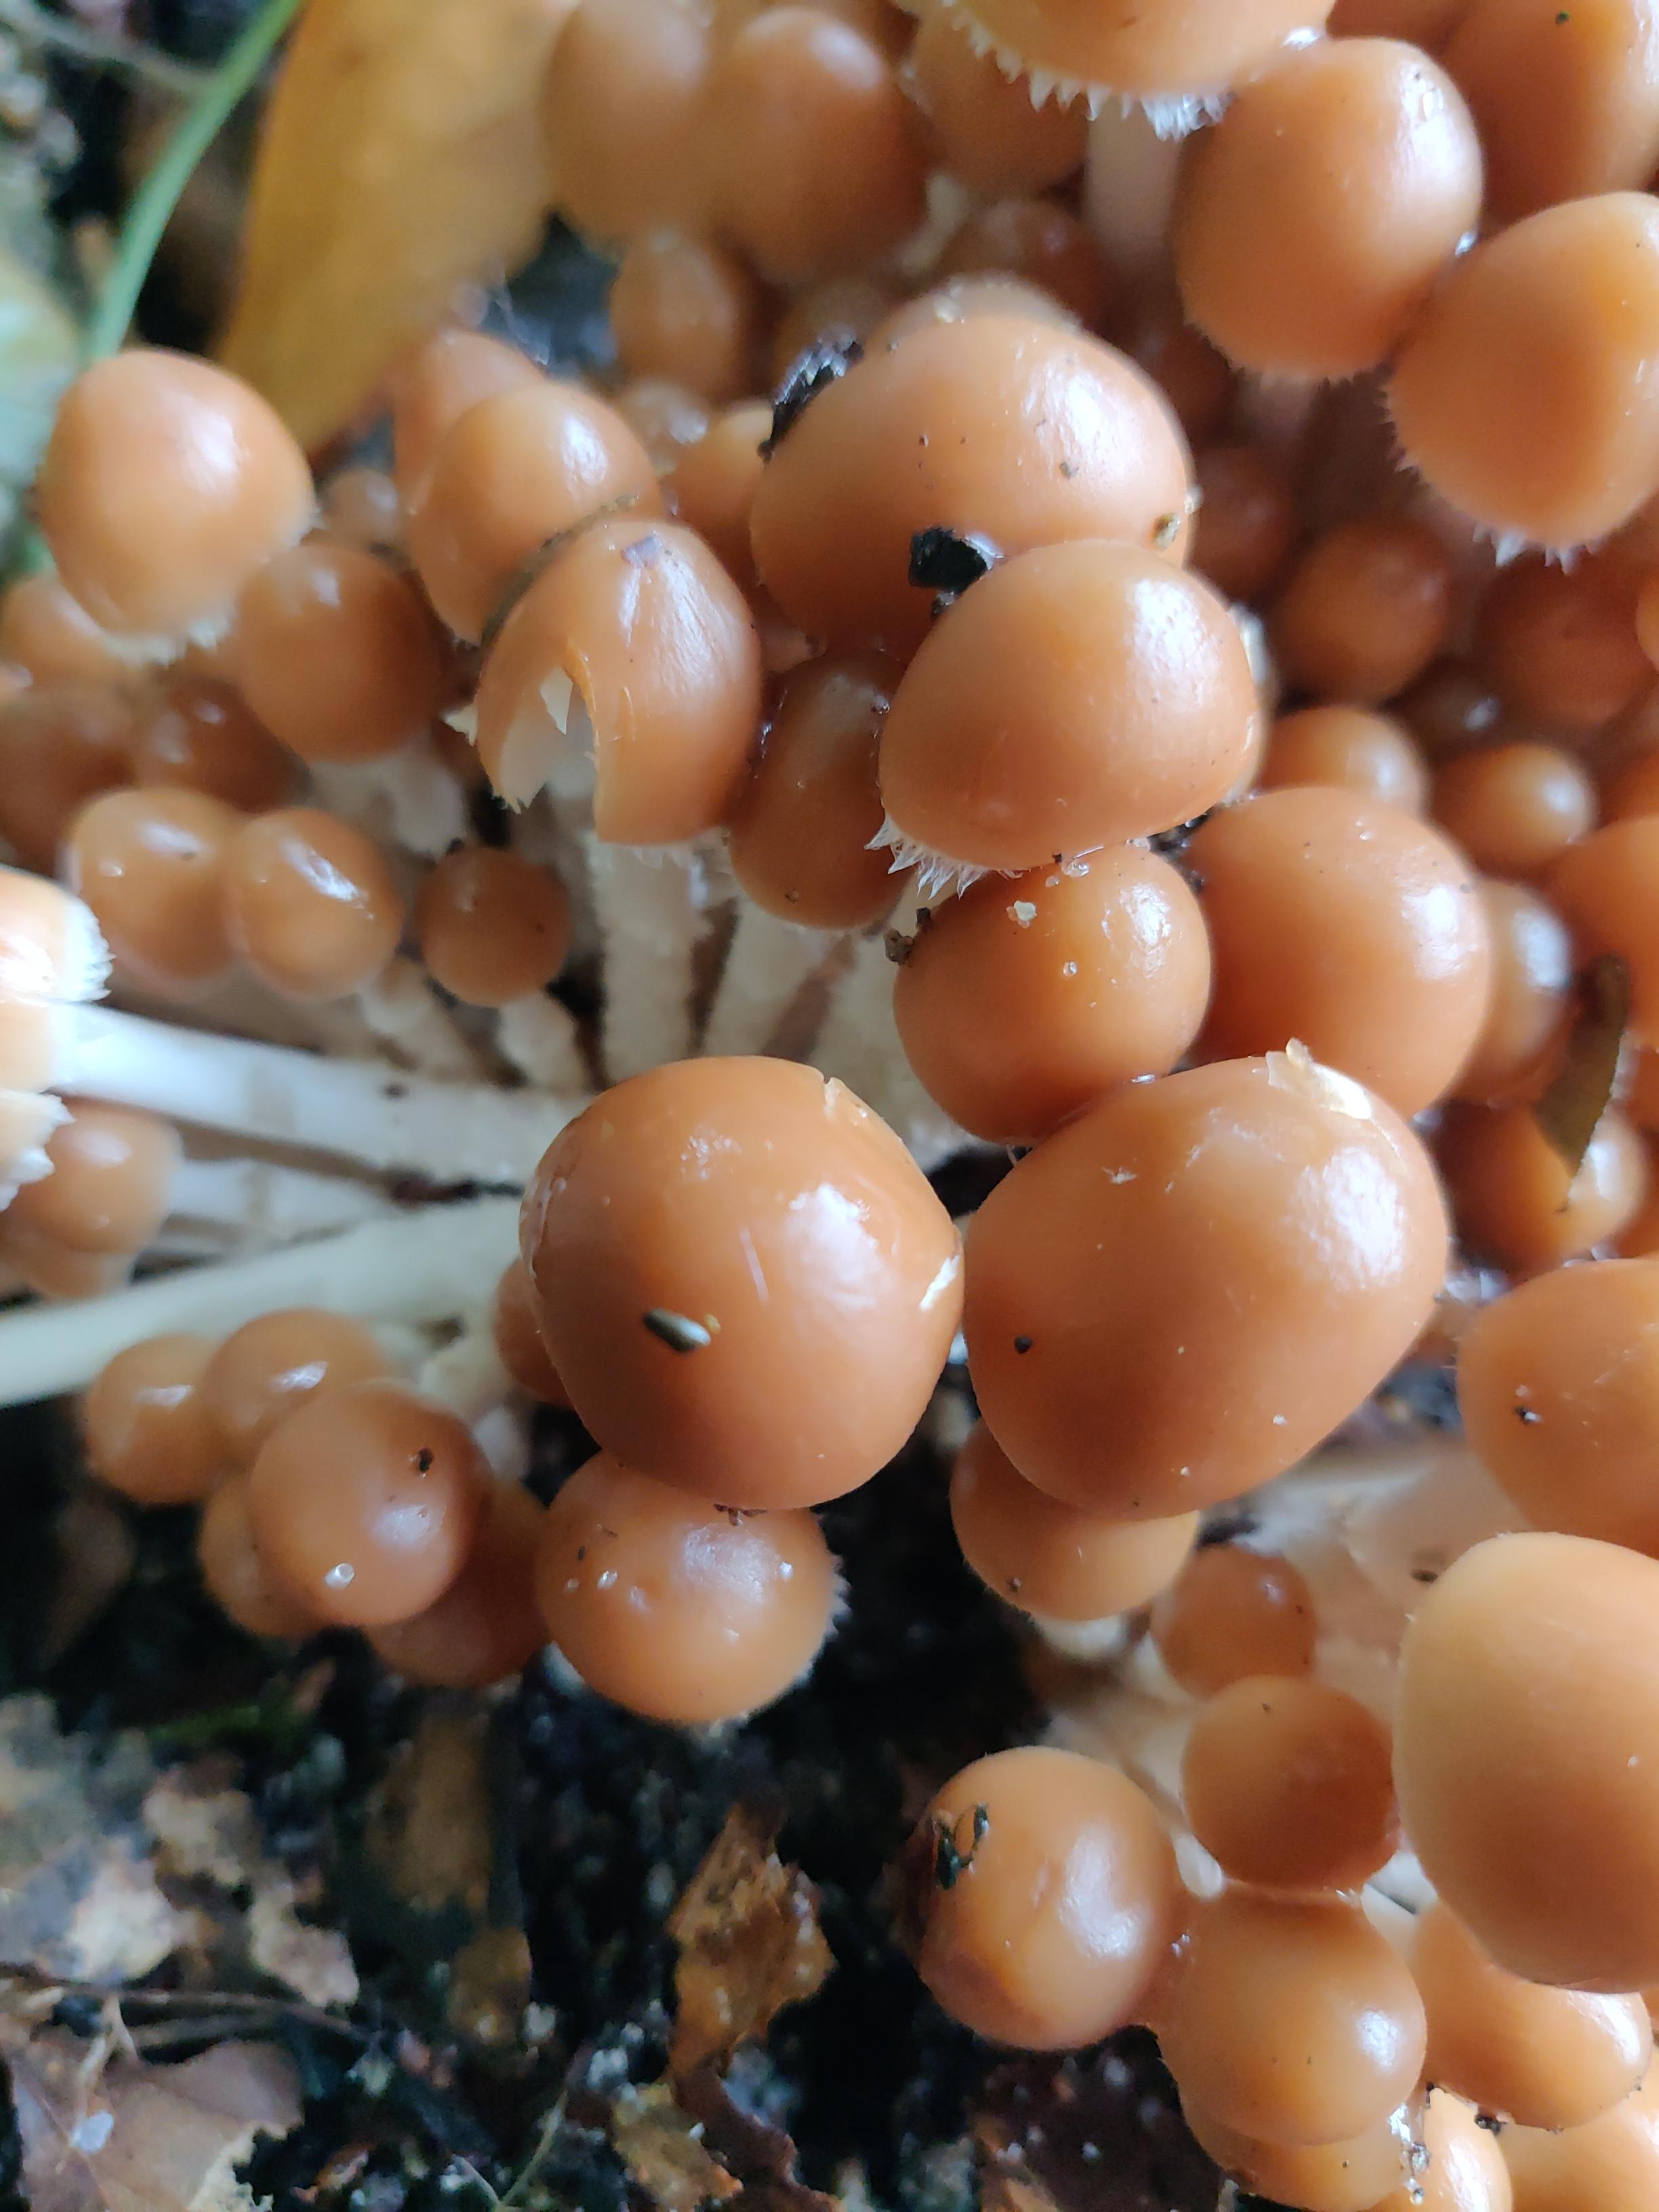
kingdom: Fungi
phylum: Basidiomycota
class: Agaricomycetes
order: Agaricales
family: Psathyrellaceae
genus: Britzelmayria
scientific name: Britzelmayria multipedata
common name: knippe-mørkhat
